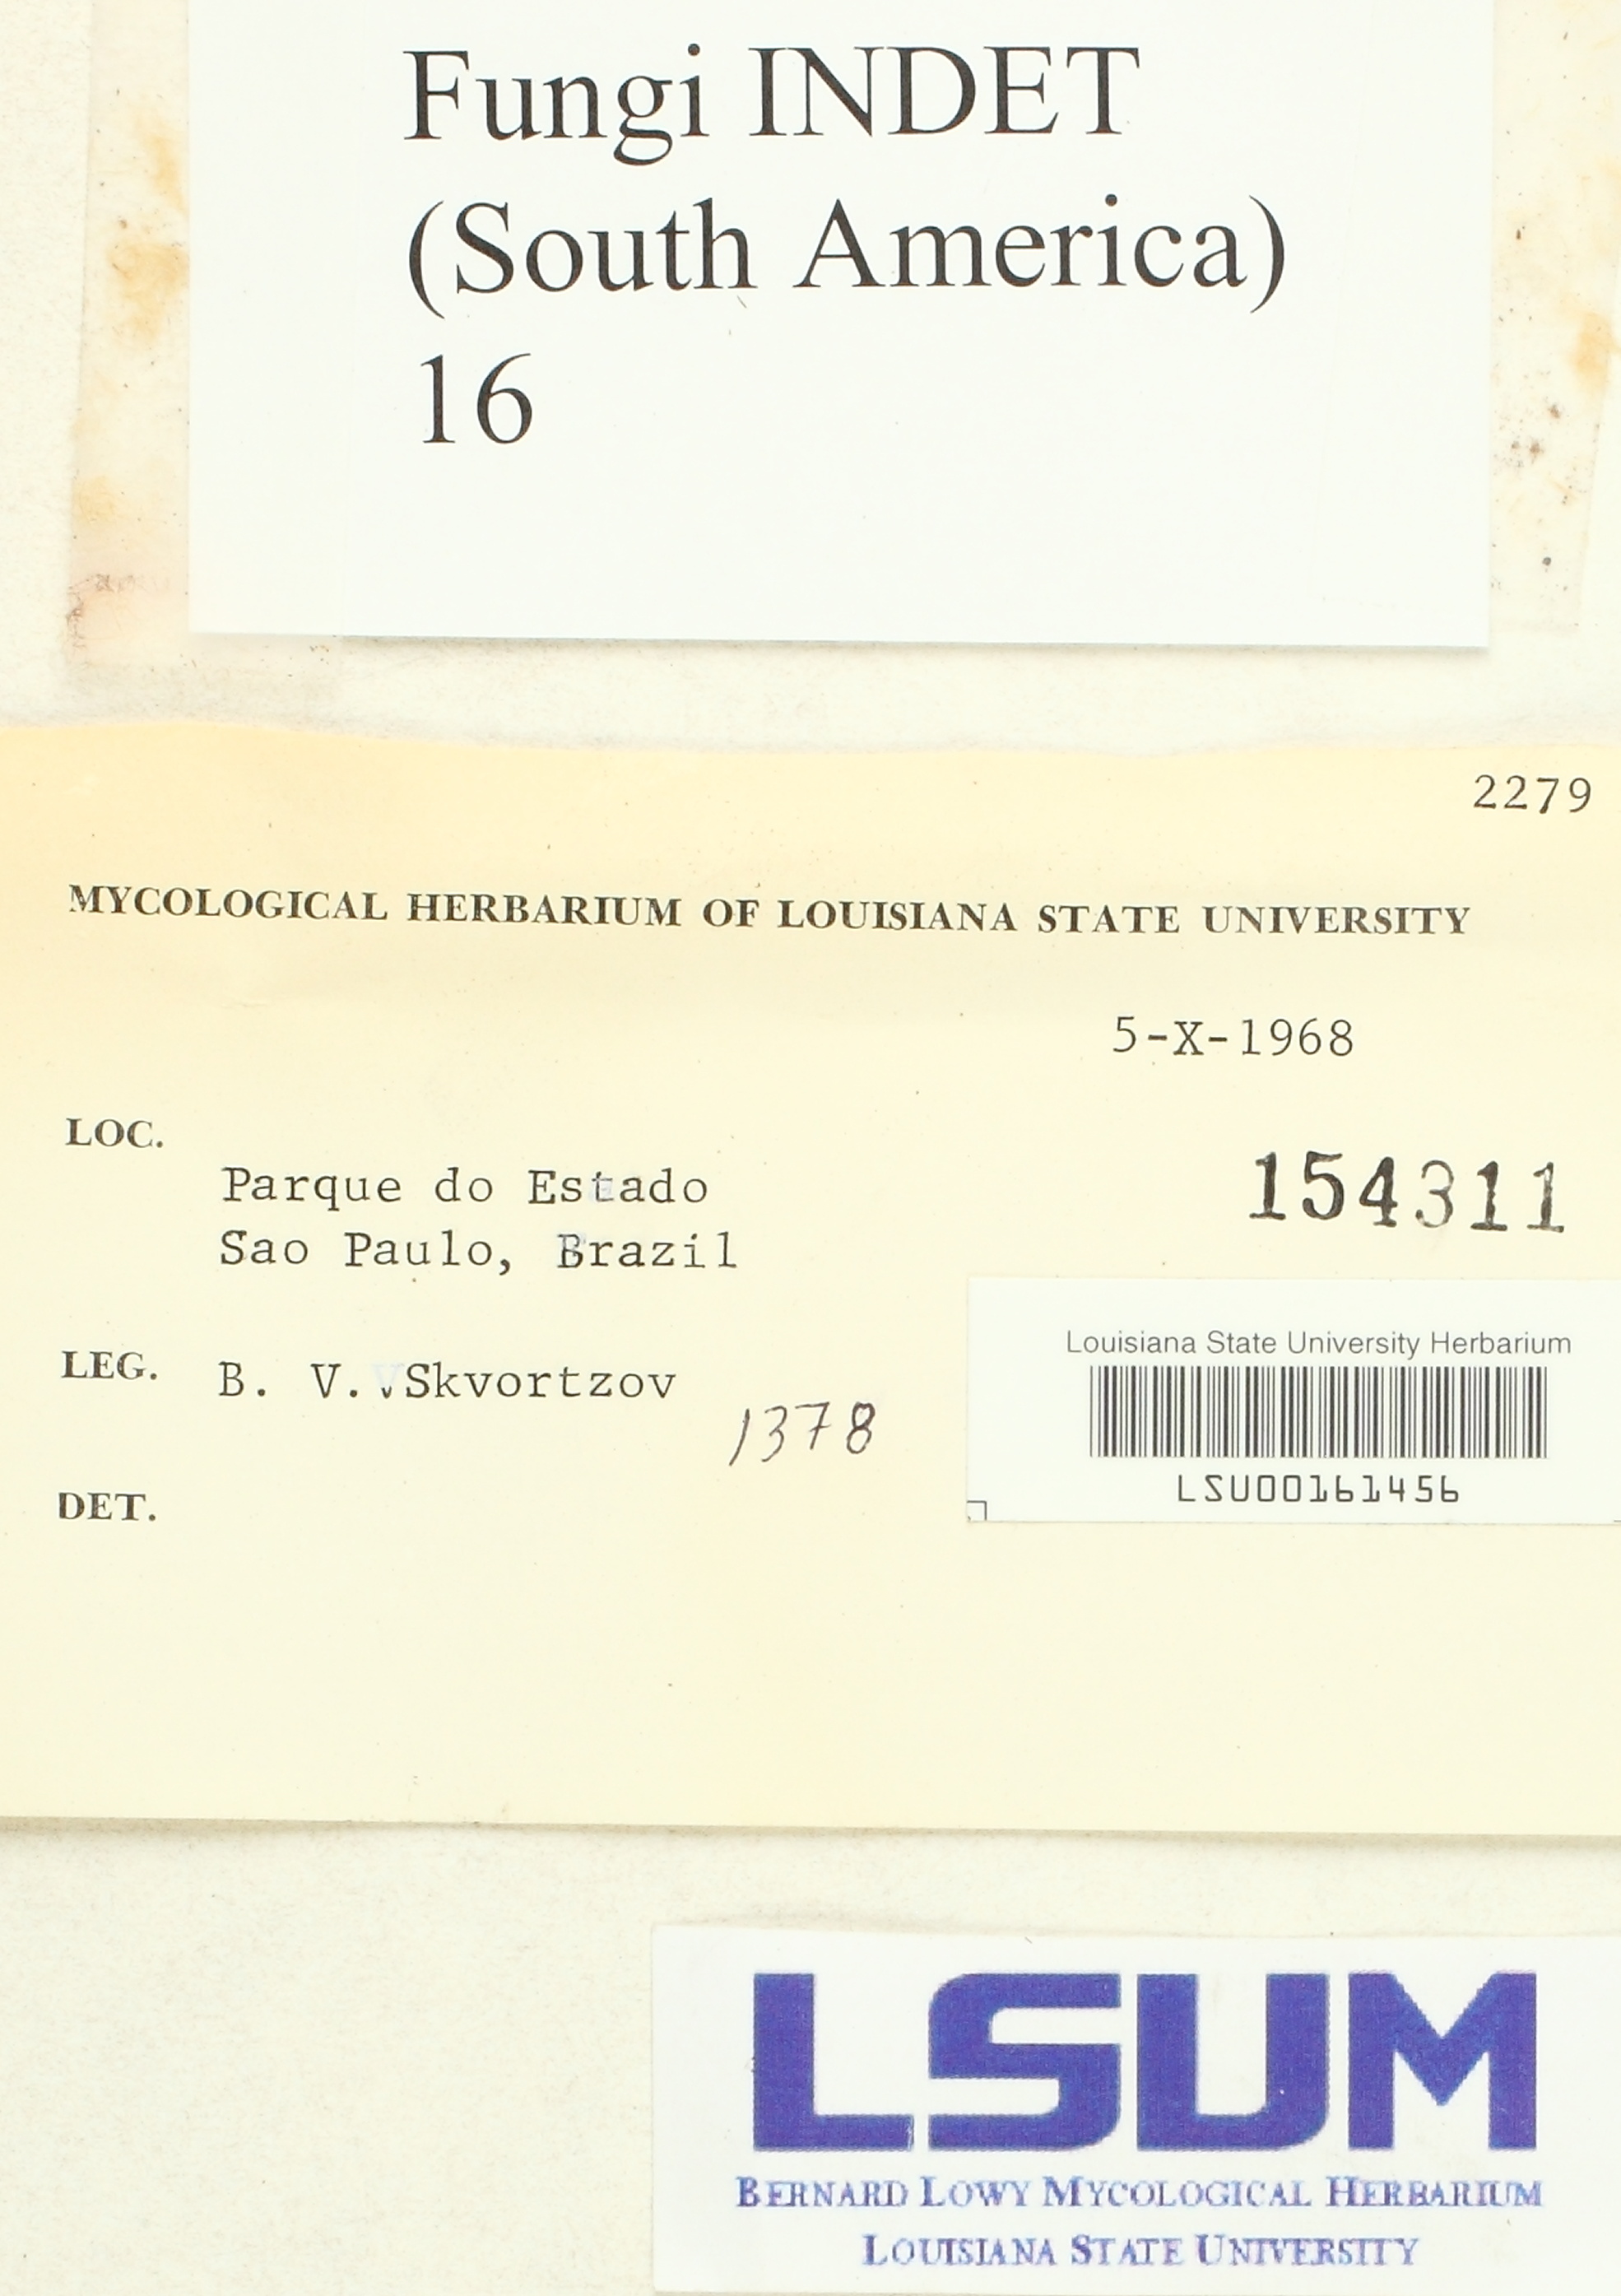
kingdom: Fungi
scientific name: Fungi
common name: Fungi
